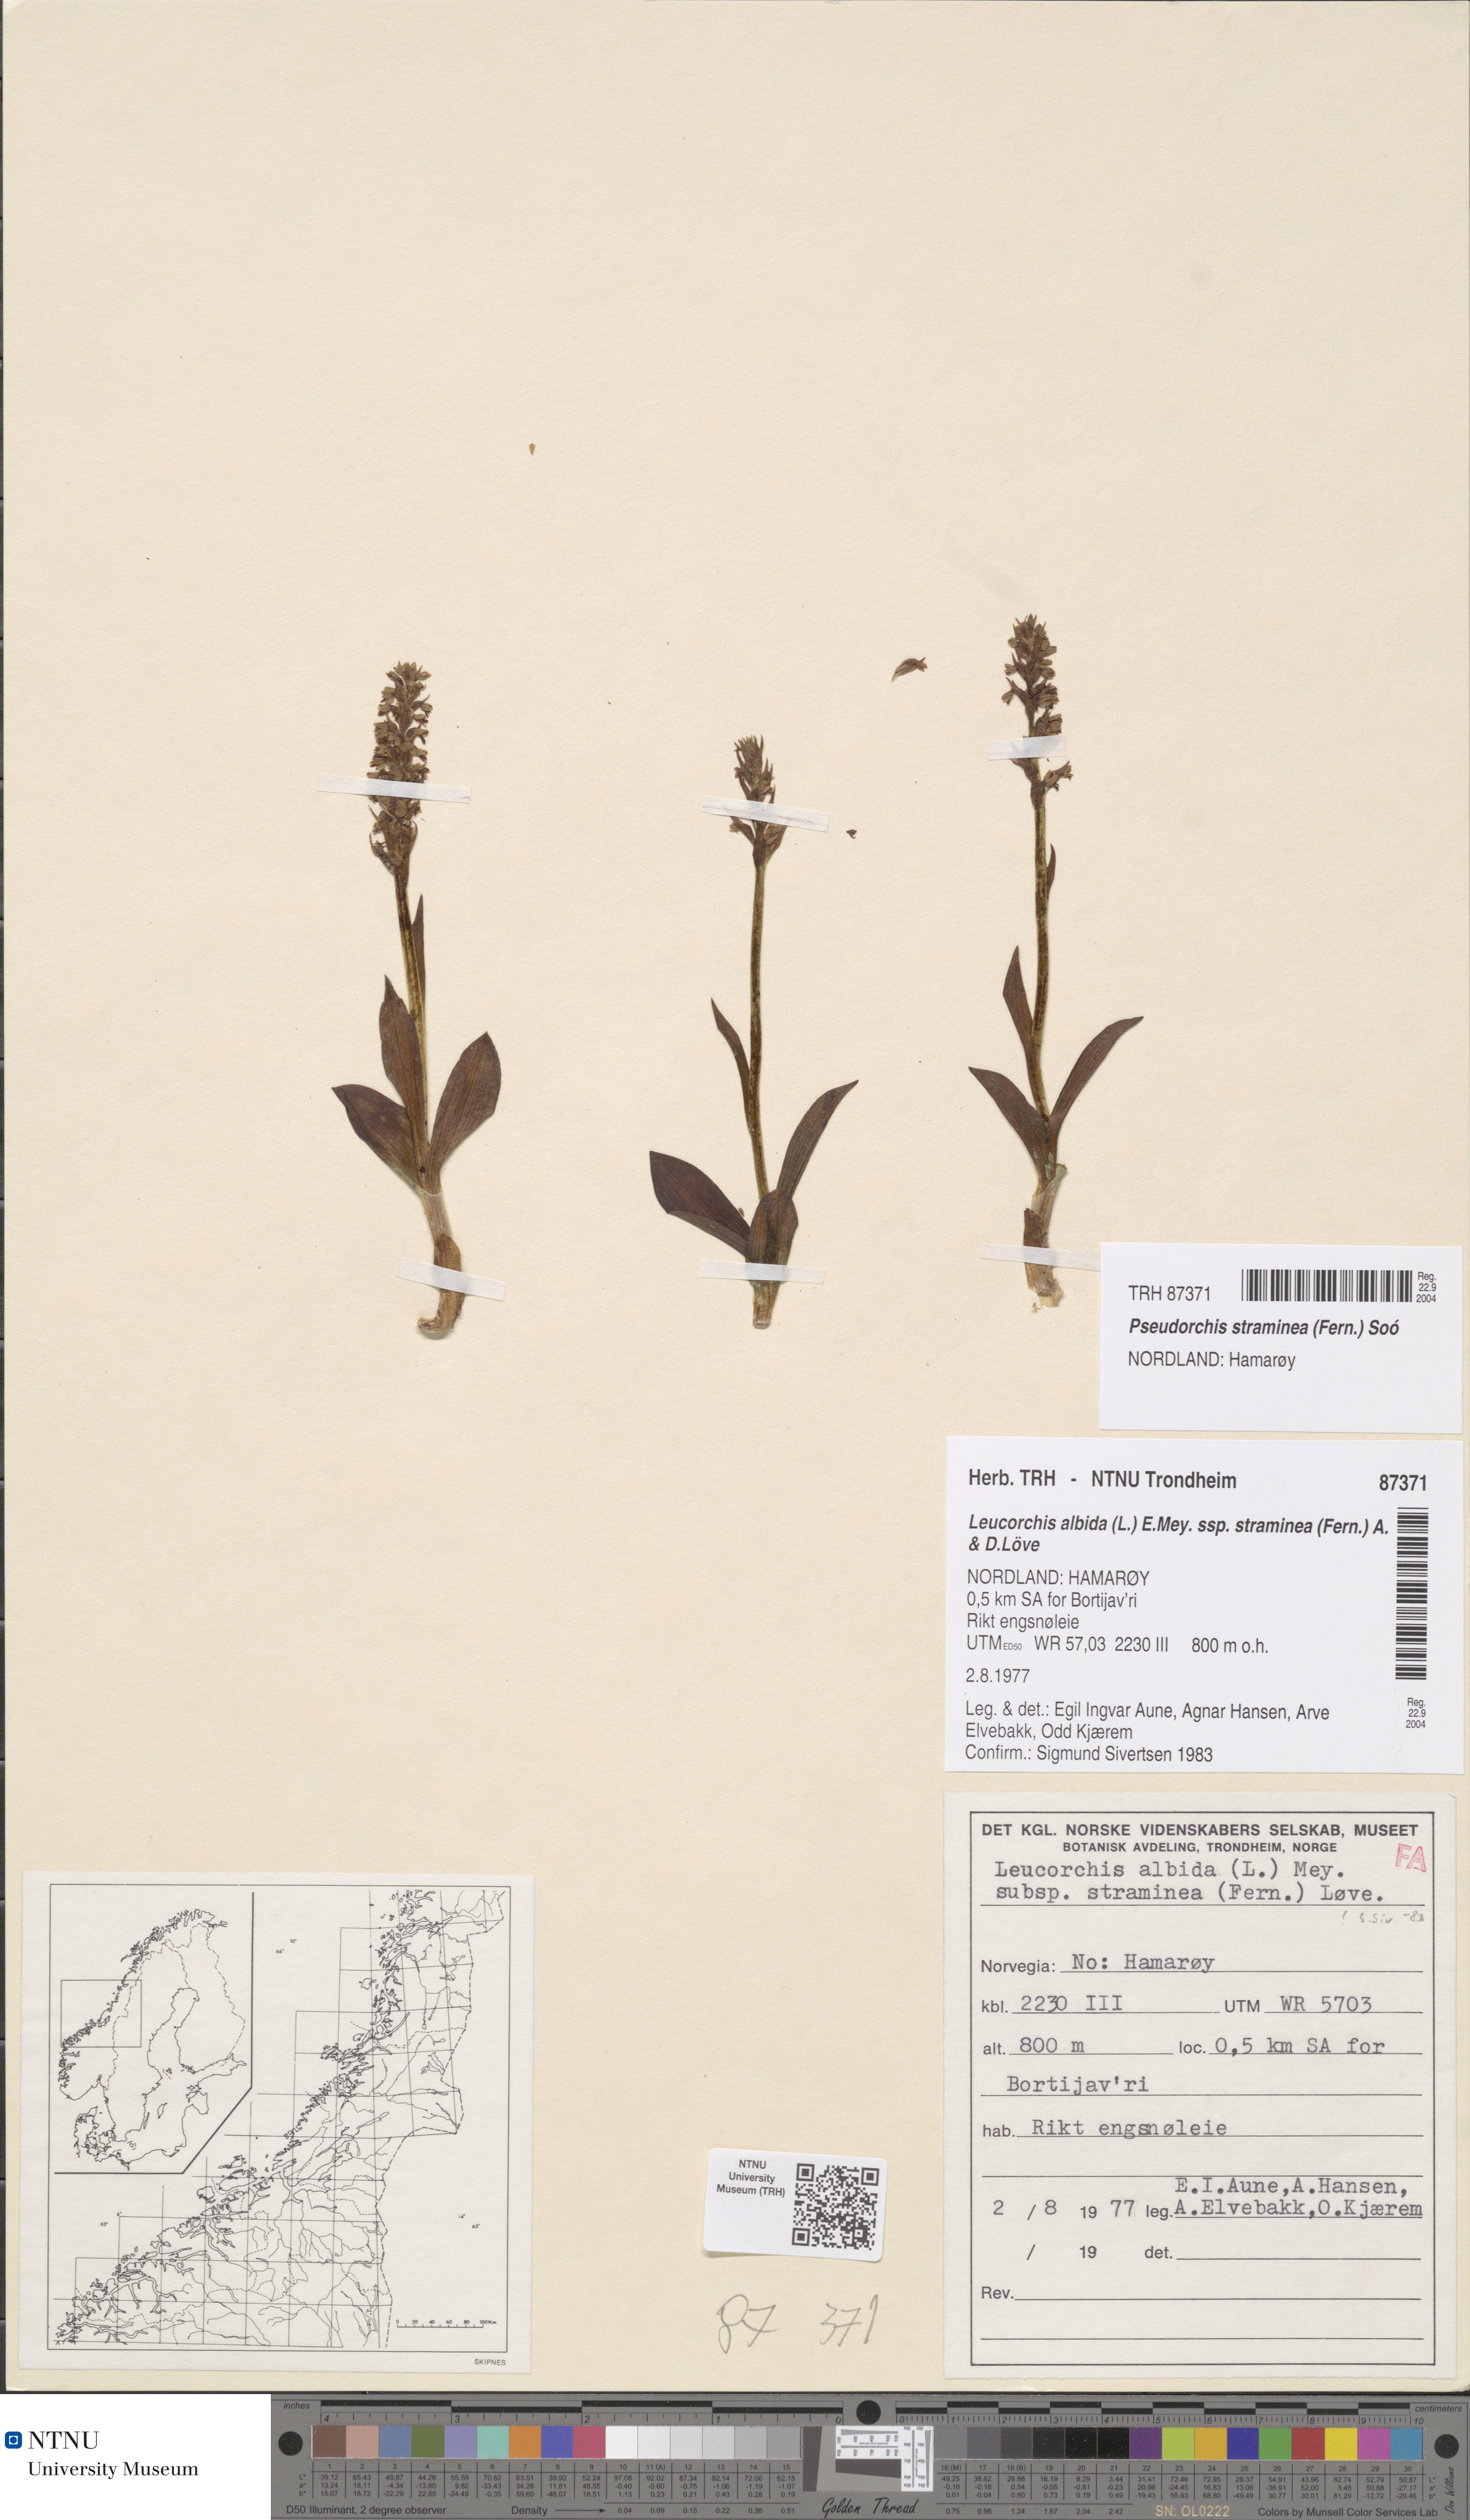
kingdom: Plantae
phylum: Tracheophyta
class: Liliopsida
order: Asparagales
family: Orchidaceae
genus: Pseudorchis
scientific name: Pseudorchis straminea
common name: Vanilla-scented bog orchid
